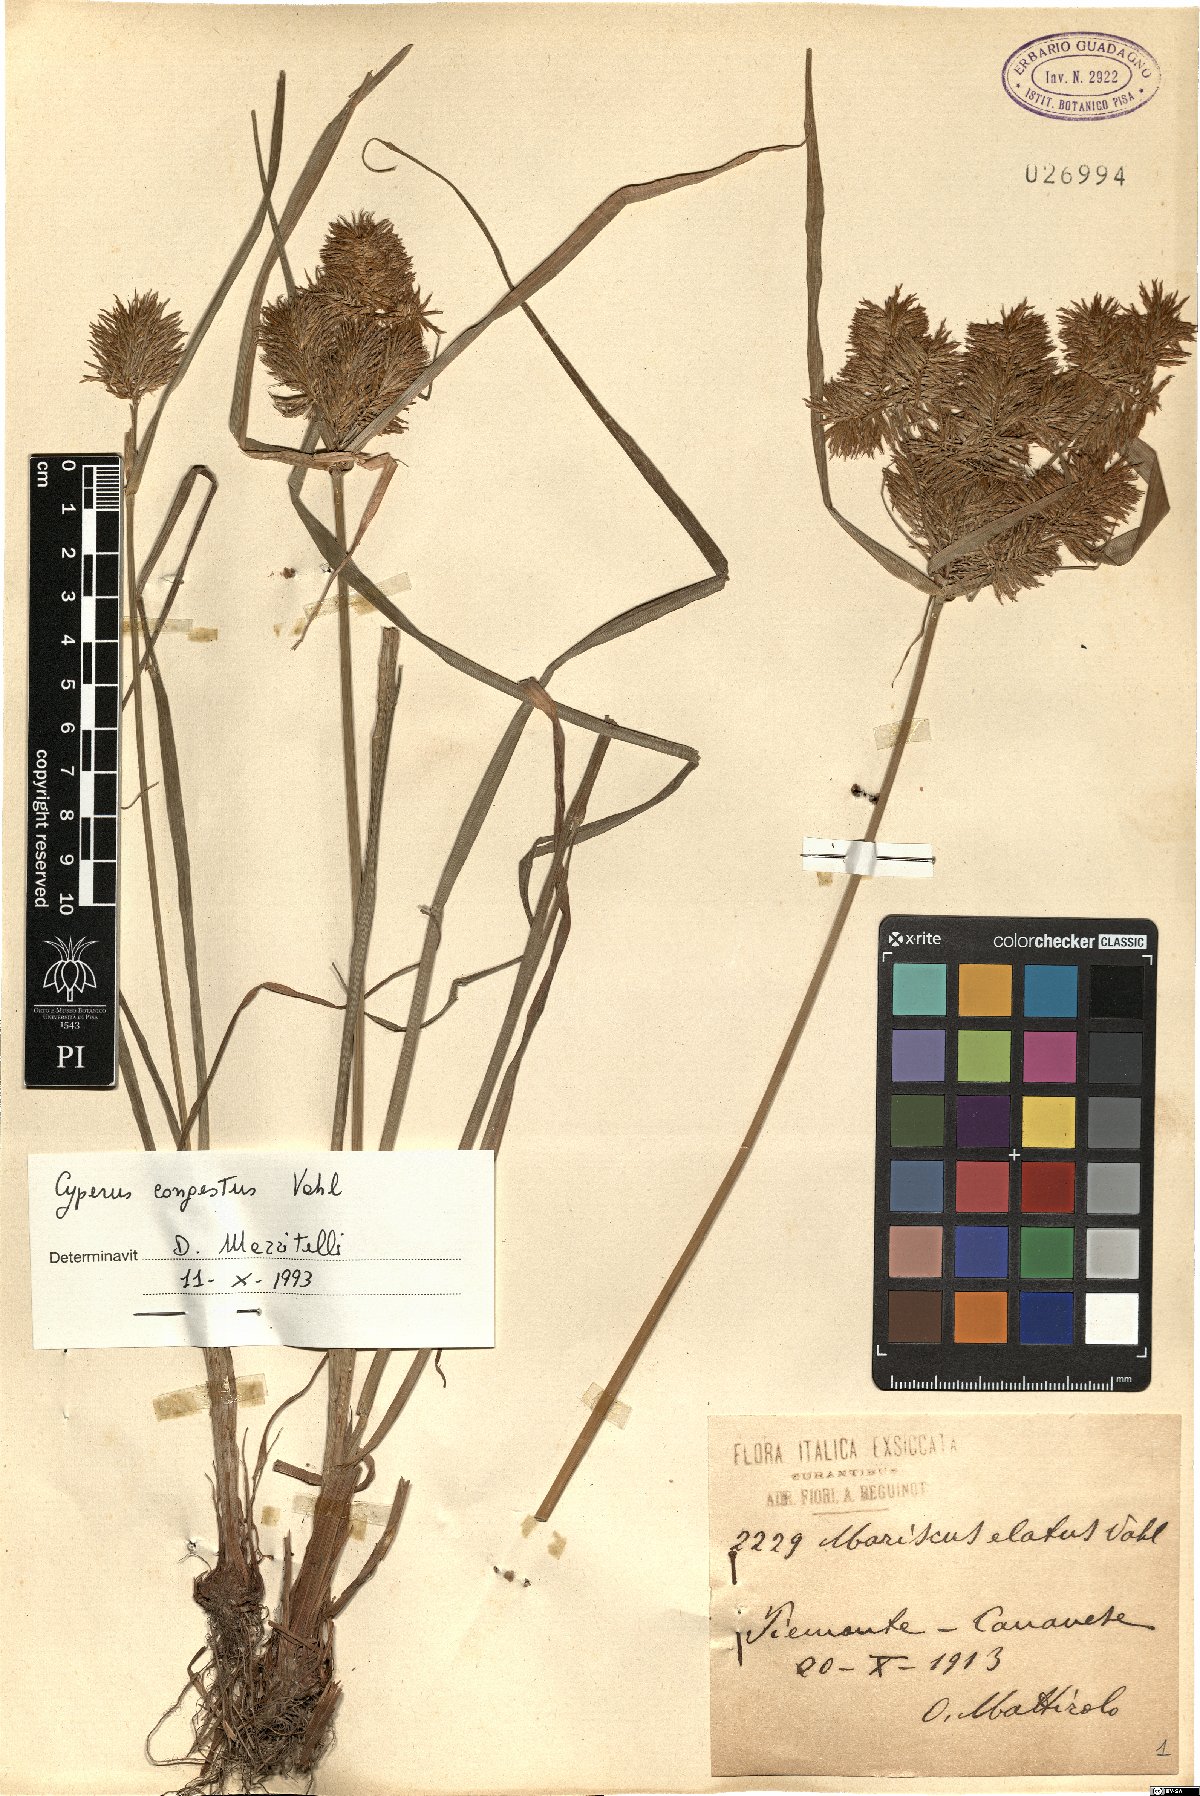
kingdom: Plantae
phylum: Tracheophyta
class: Liliopsida
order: Poales
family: Cyperaceae
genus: Cyperus
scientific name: Cyperus congestus
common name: Dense flat sedge
